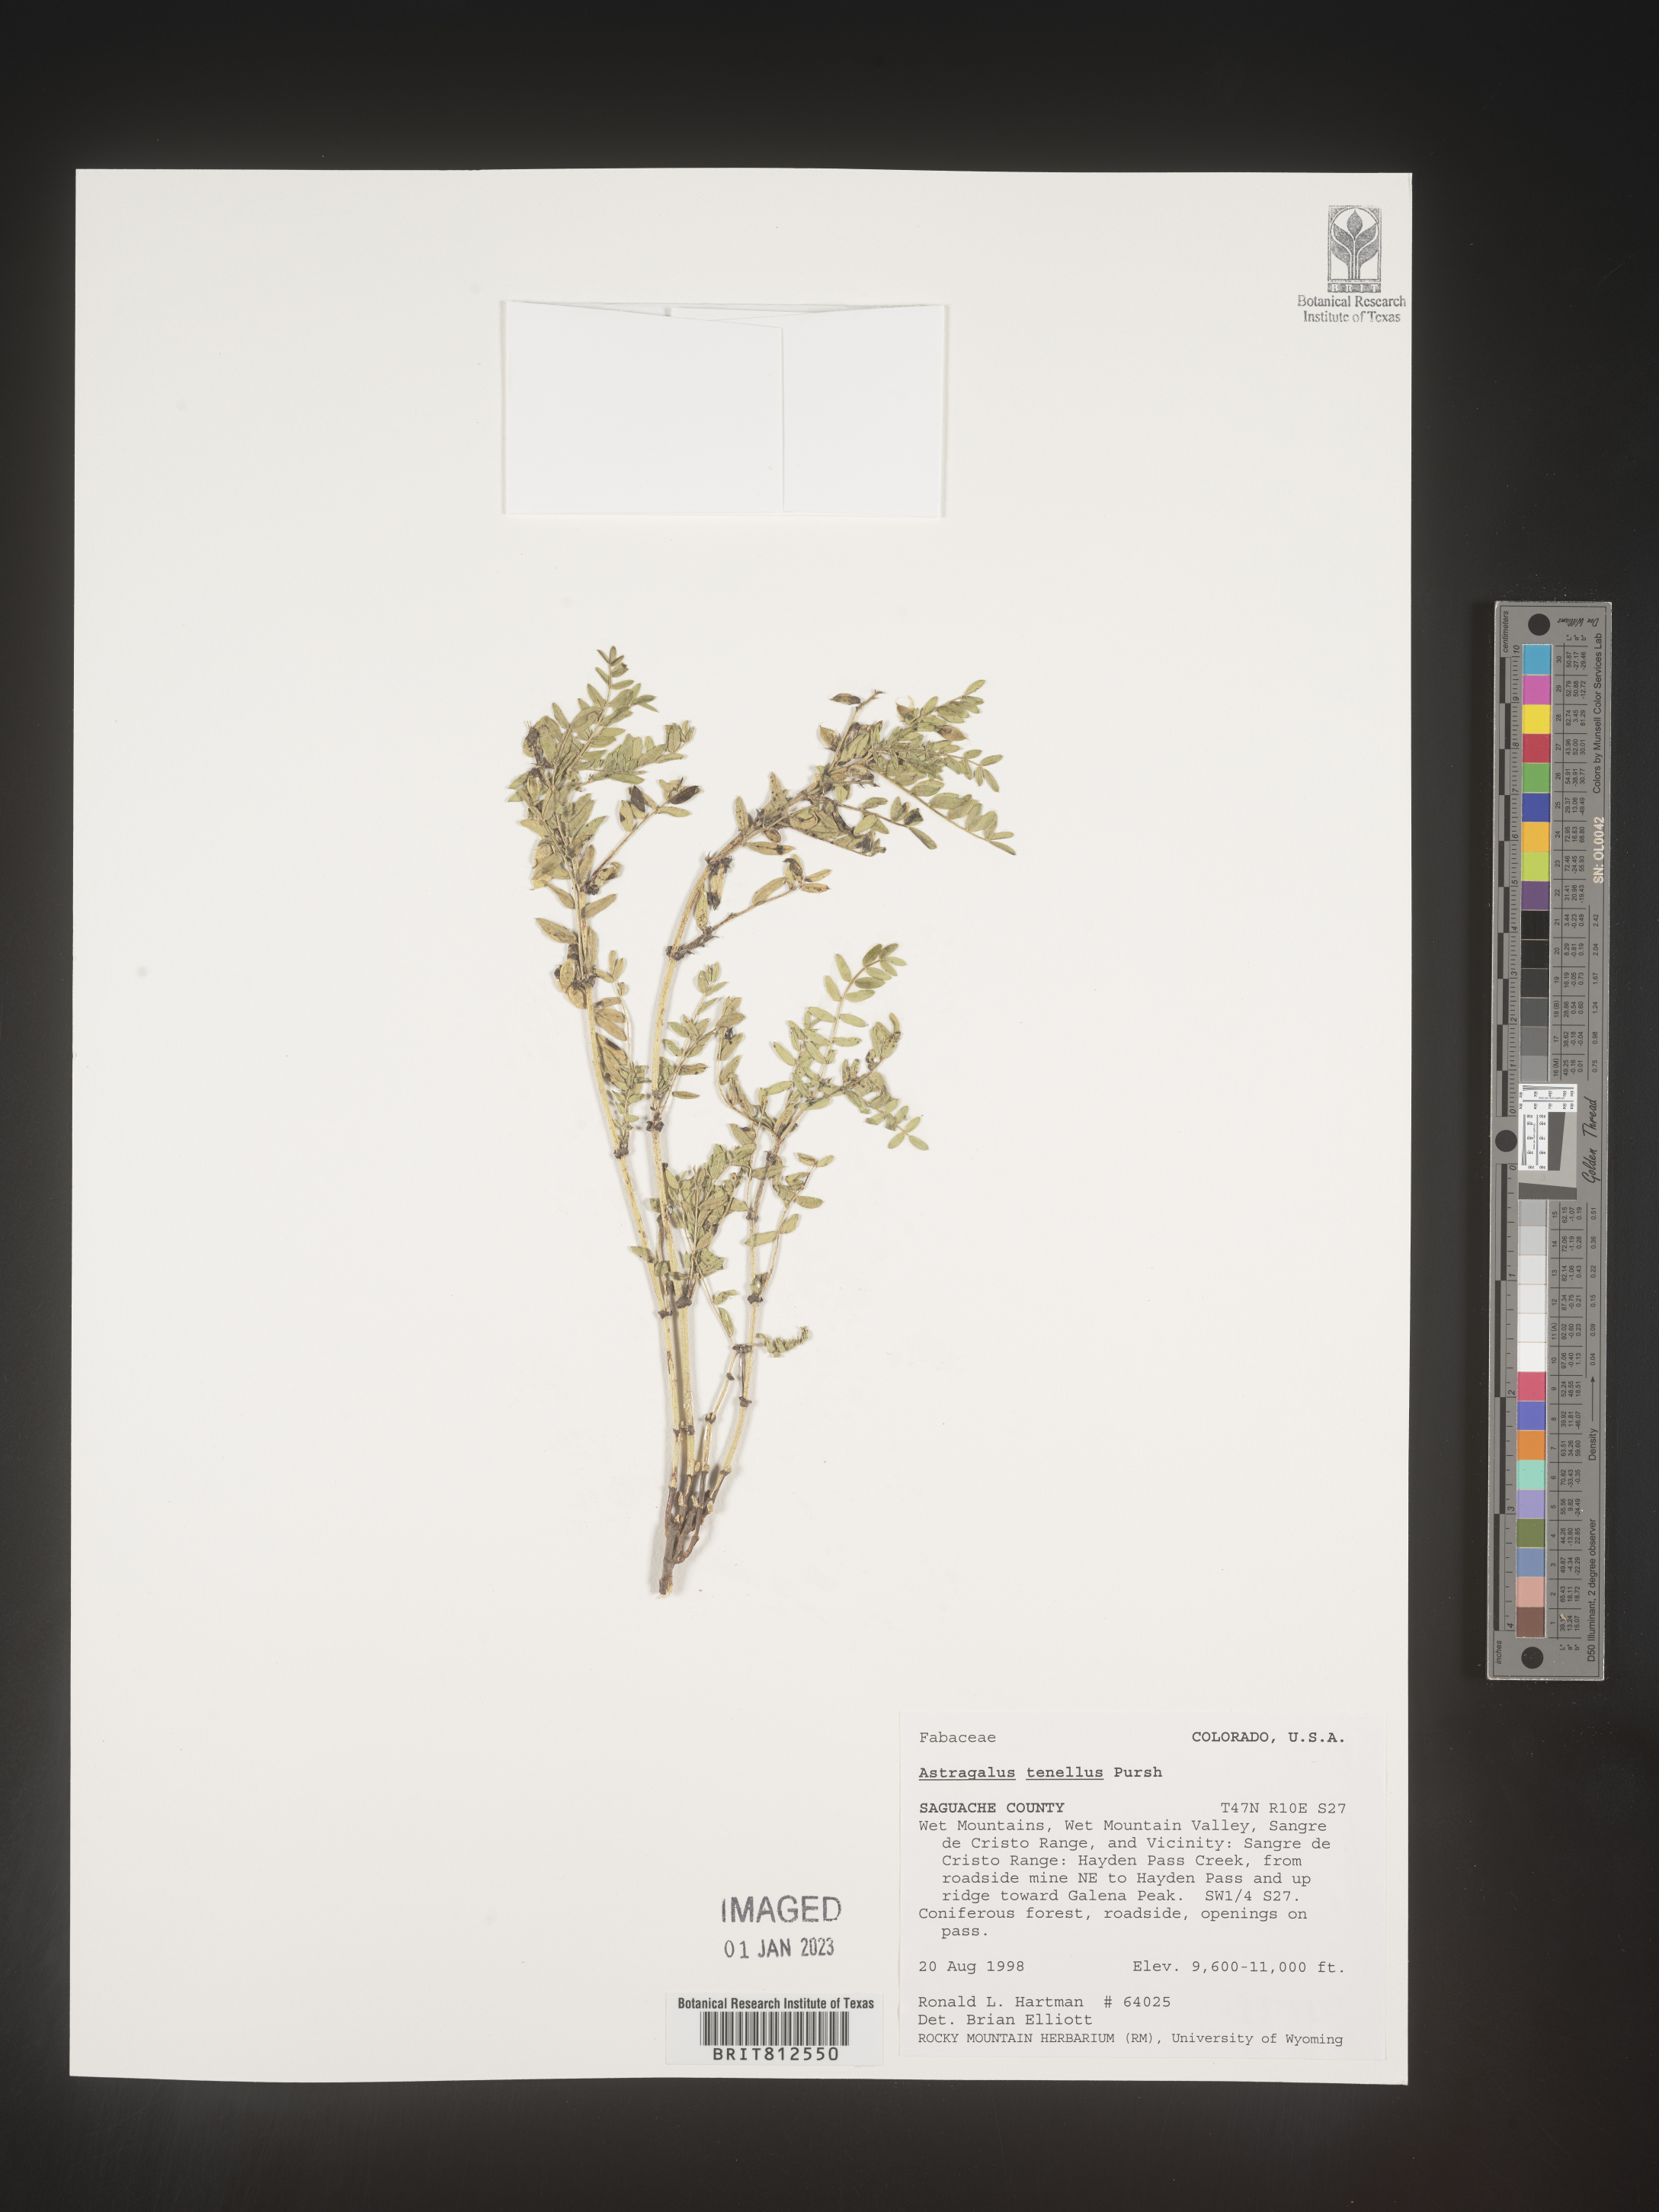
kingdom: Plantae
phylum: Tracheophyta
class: Magnoliopsida
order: Fabales
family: Fabaceae
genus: Astragalus
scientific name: Astragalus
